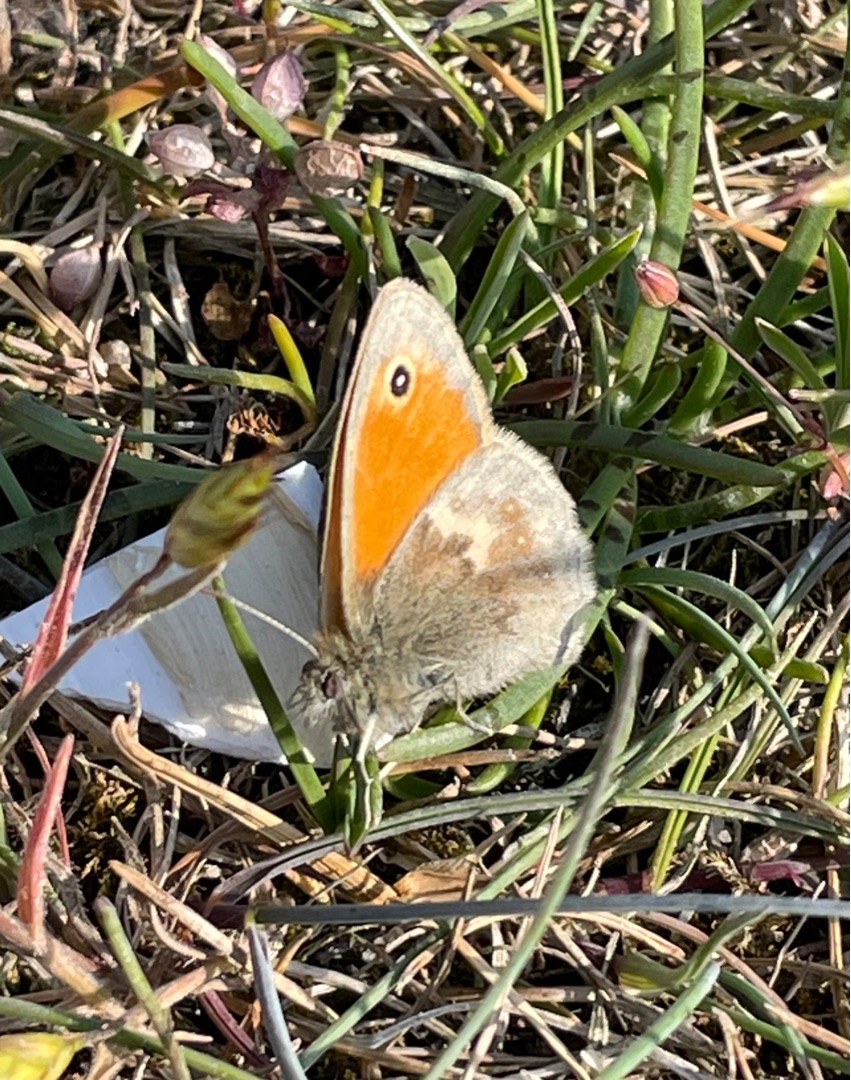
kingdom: Animalia
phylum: Arthropoda
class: Insecta
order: Lepidoptera
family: Nymphalidae
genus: Coenonympha
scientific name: Coenonympha pamphilus
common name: Okkergul randøje
